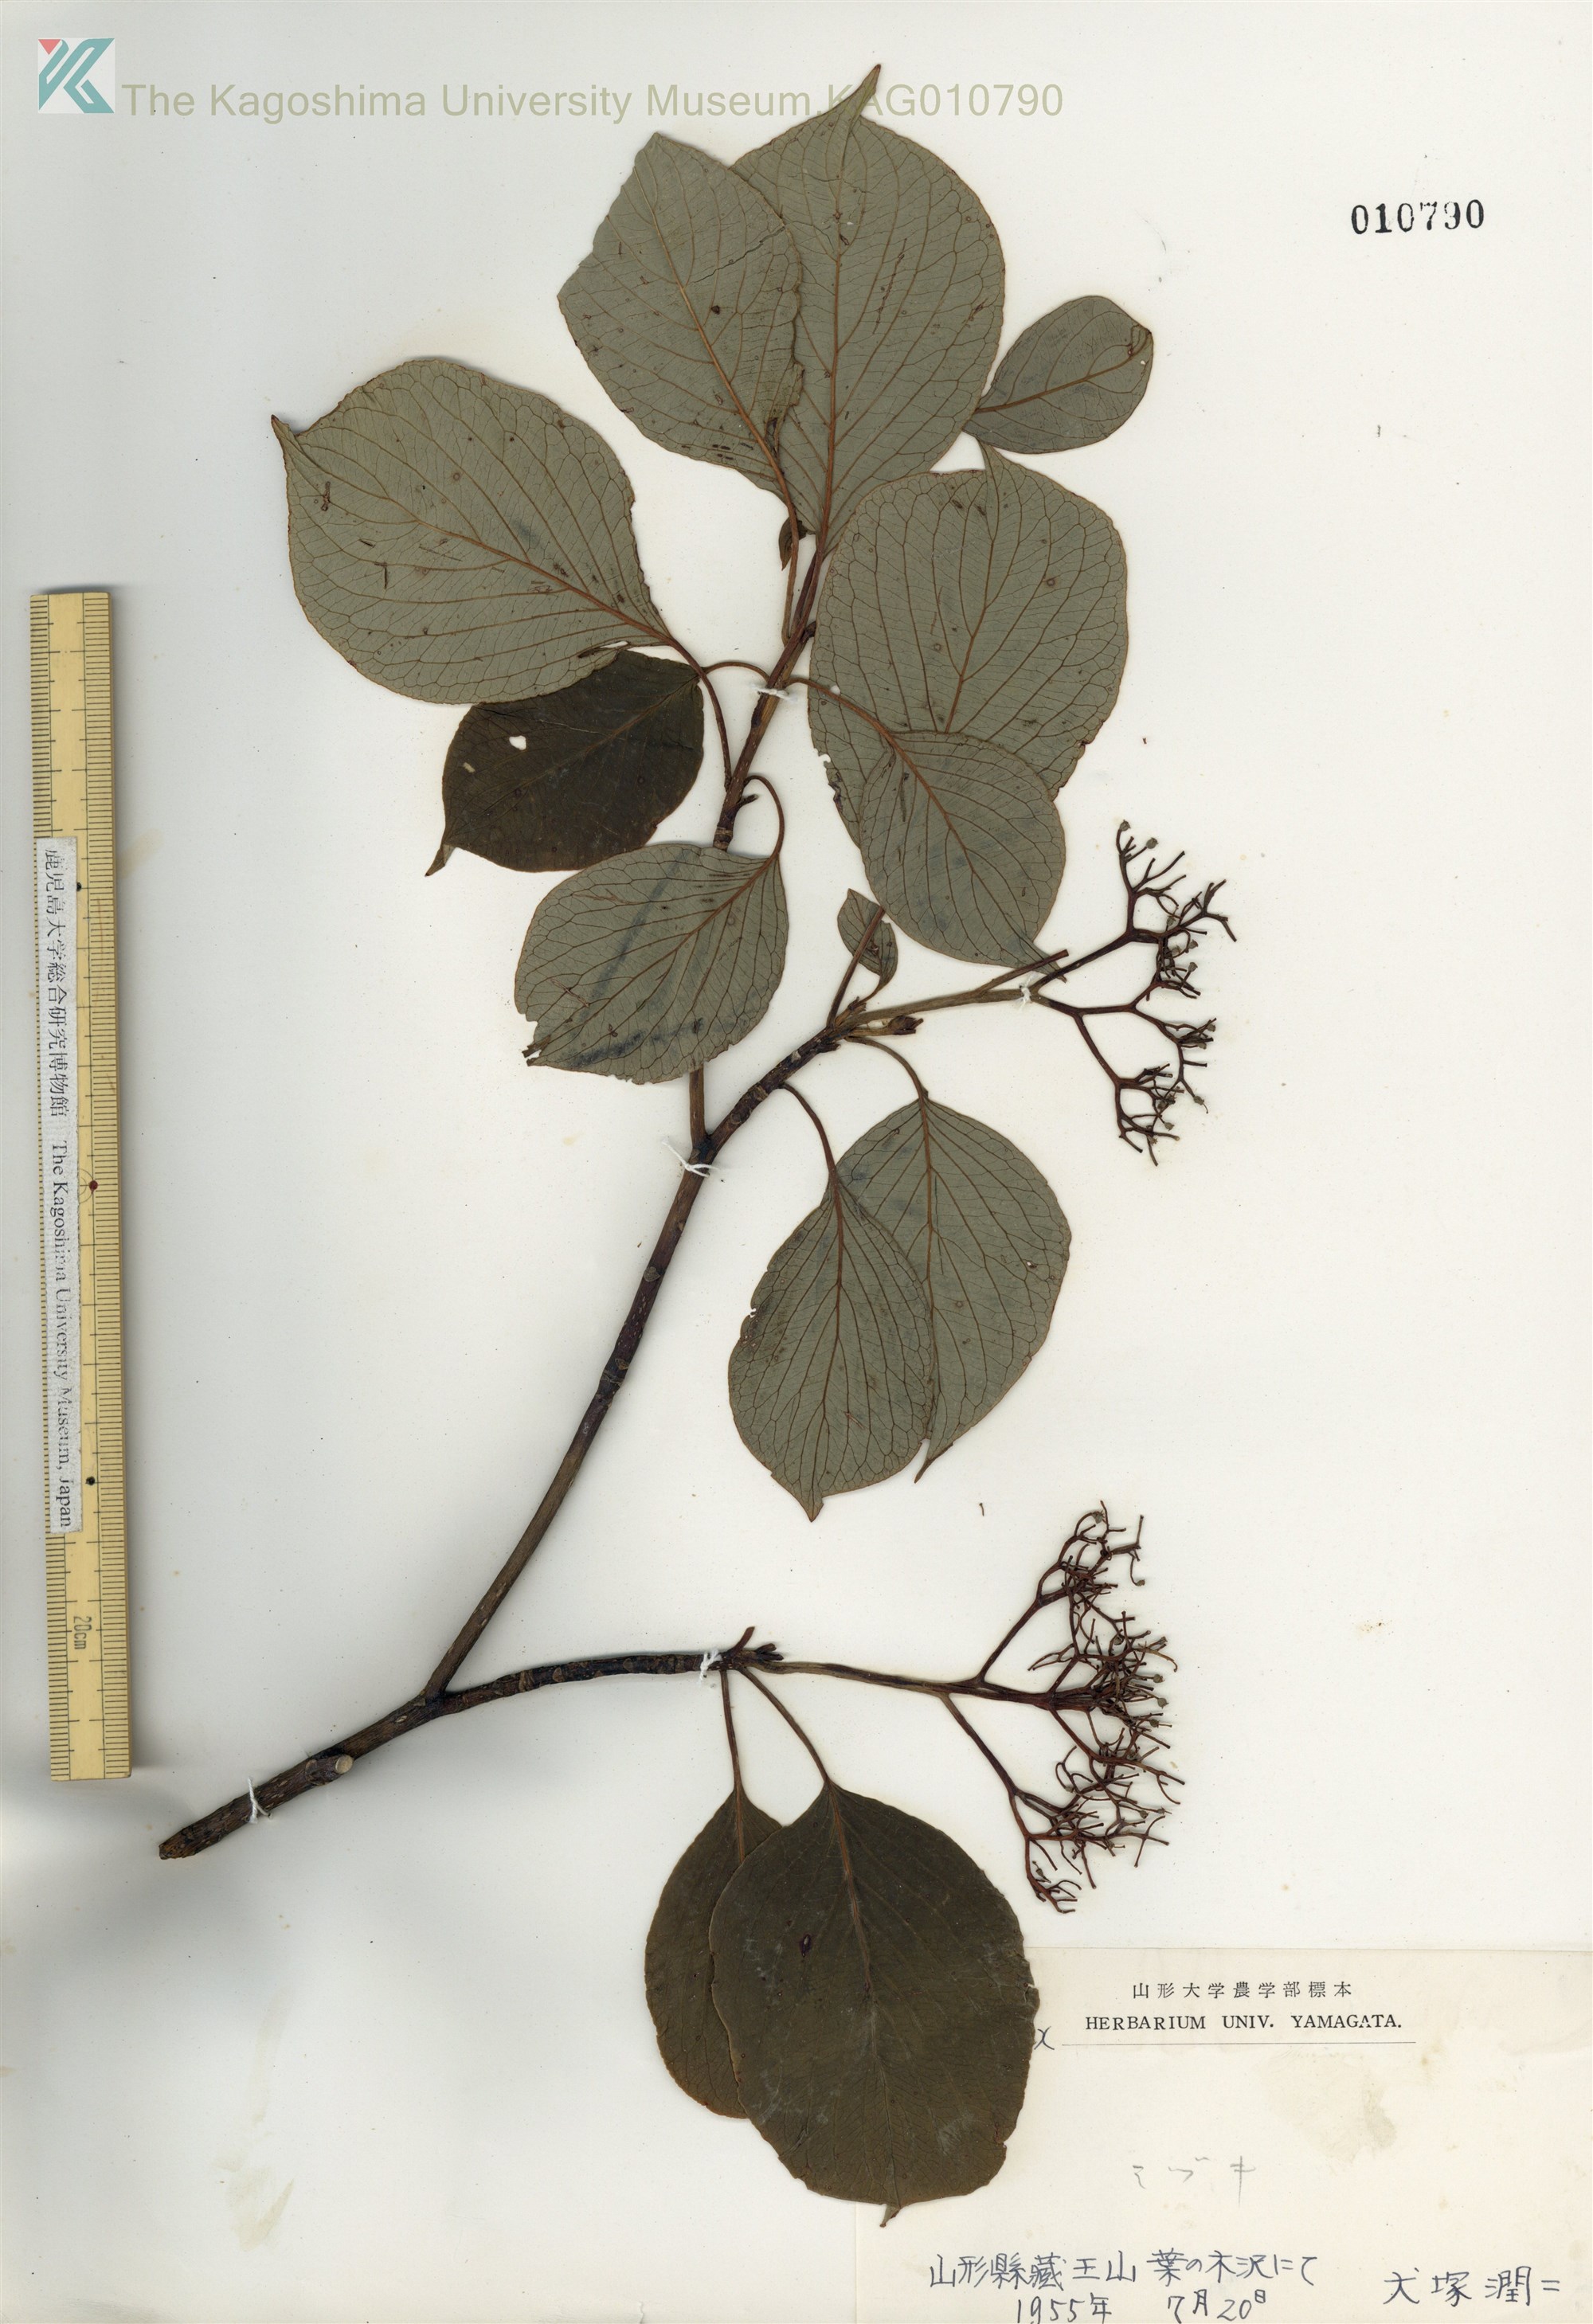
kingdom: Plantae
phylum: Tracheophyta
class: Magnoliopsida
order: Cornales
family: Cornaceae
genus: Cornus
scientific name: Cornus controversa
